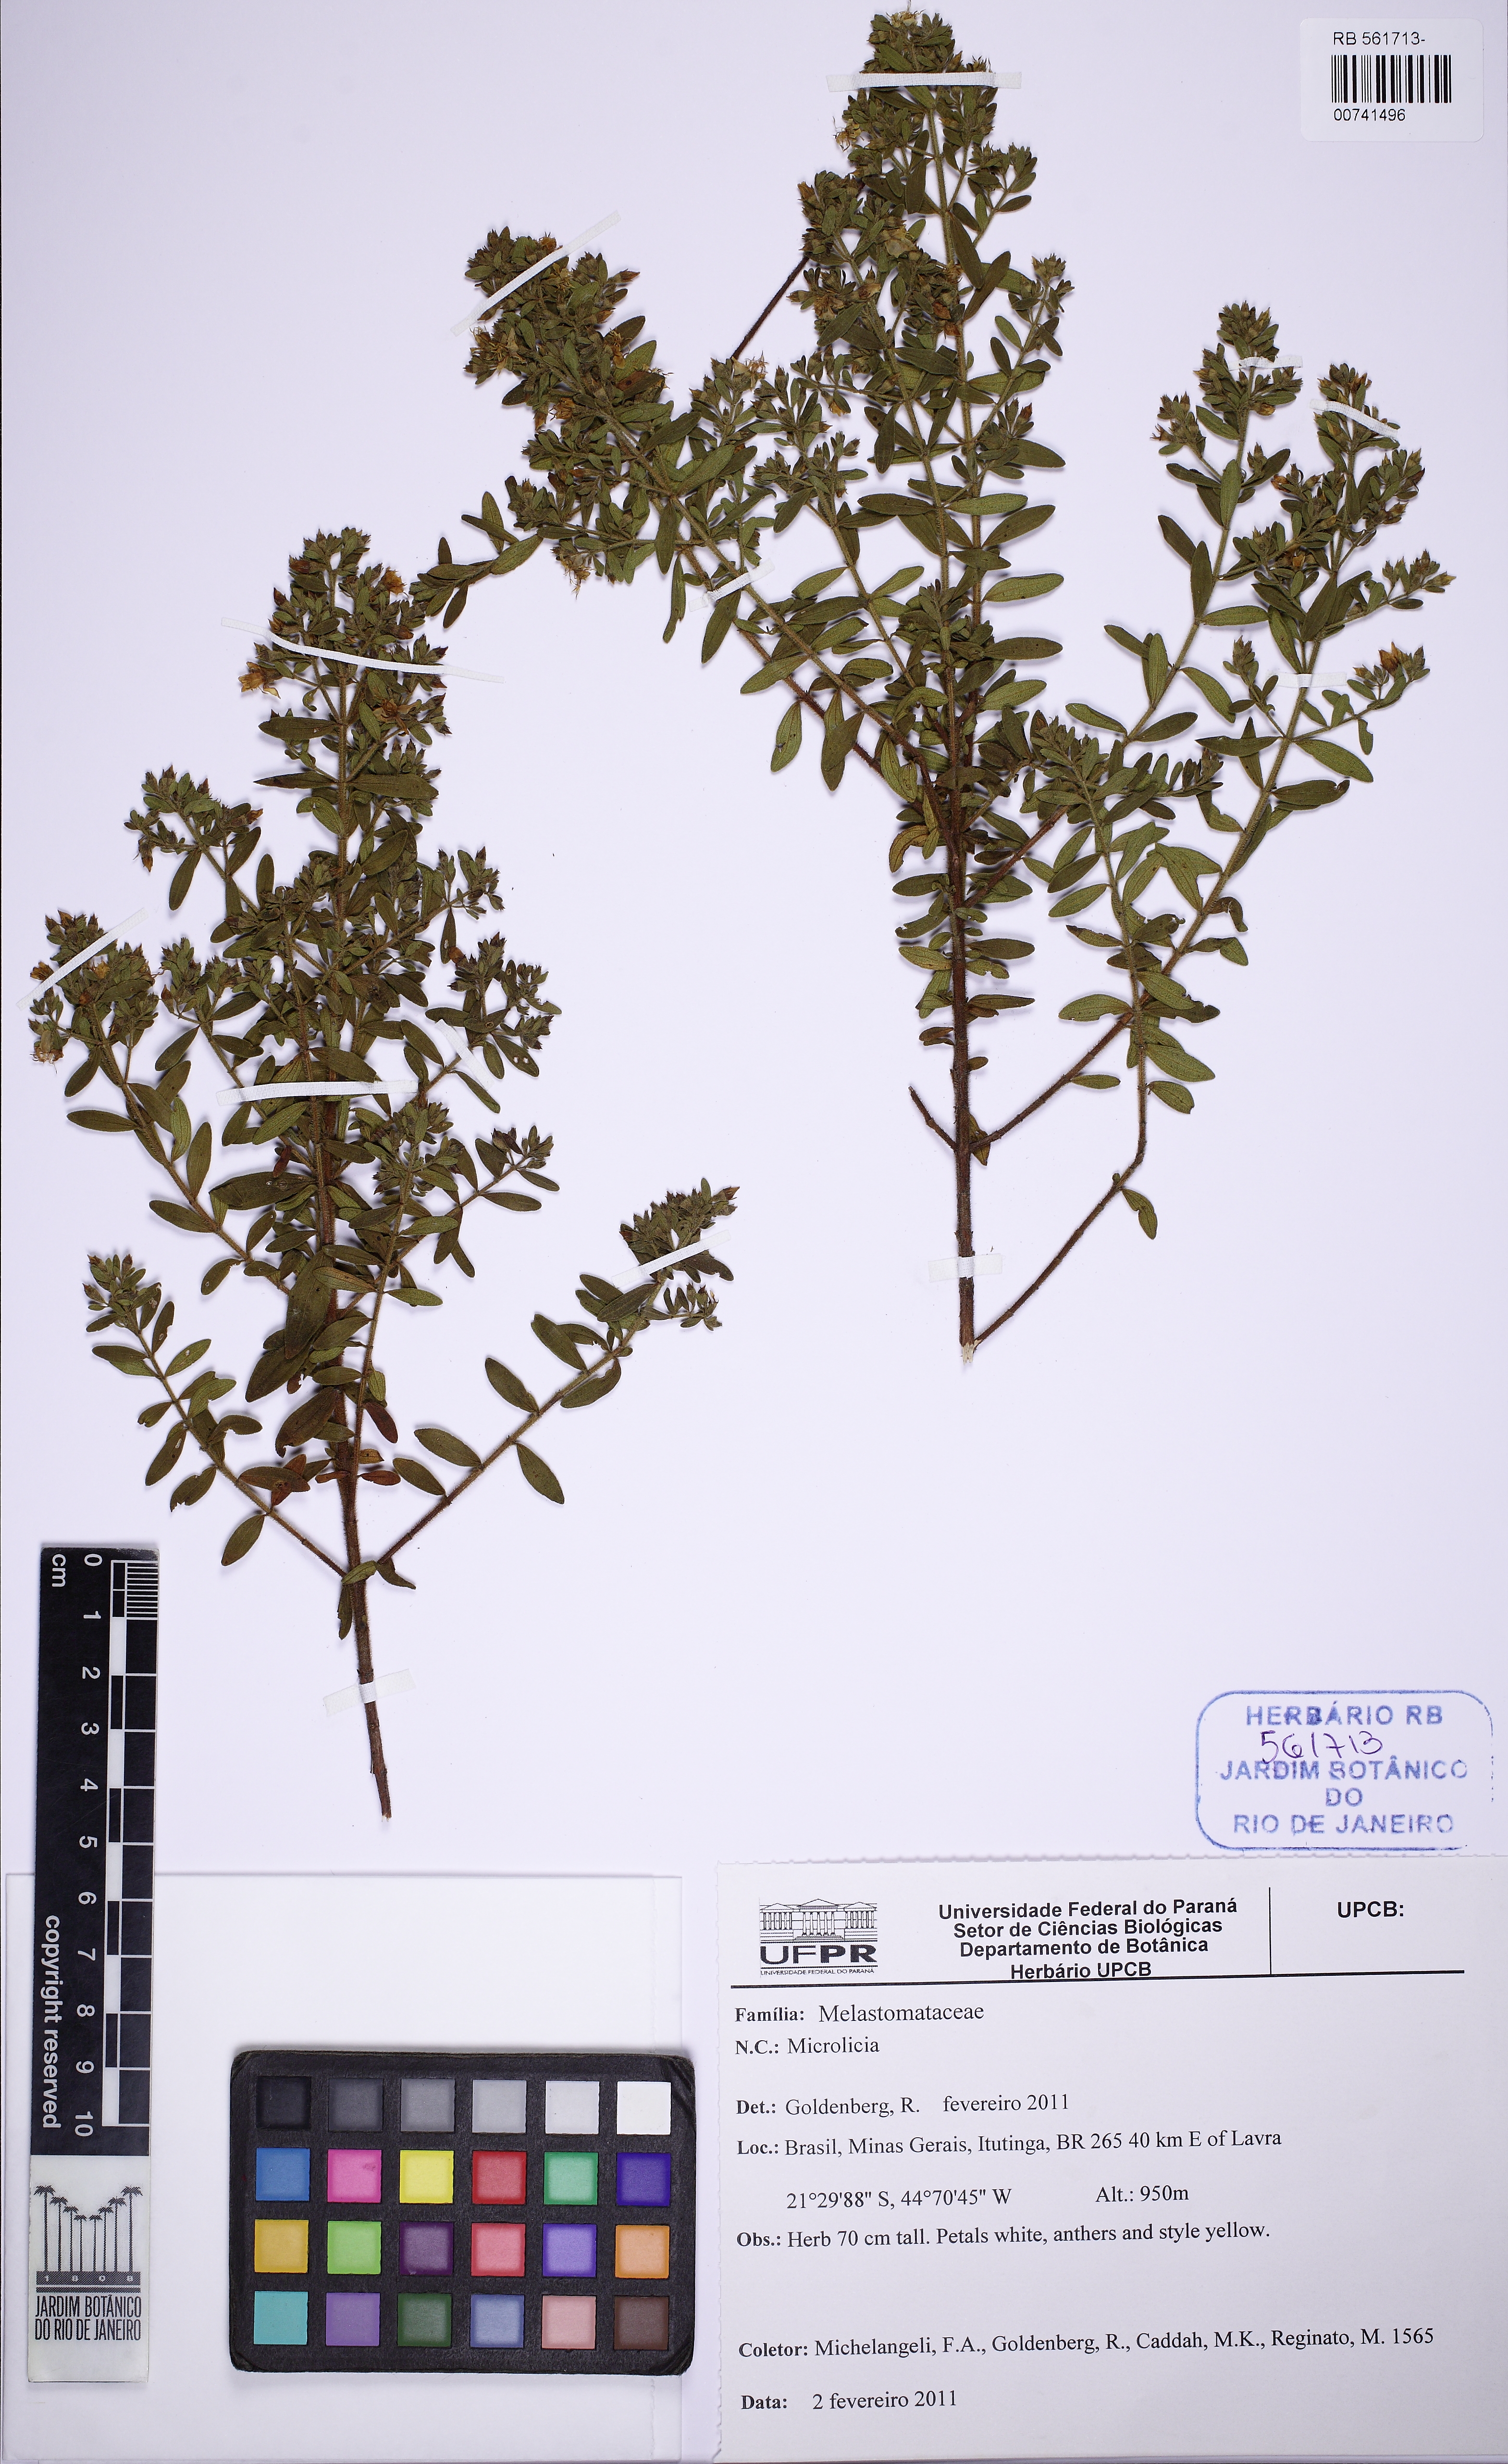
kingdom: Plantae
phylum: Tracheophyta
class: Magnoliopsida
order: Myrtales
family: Melastomataceae
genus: Microlicia
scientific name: Microlicia euphorbioides
